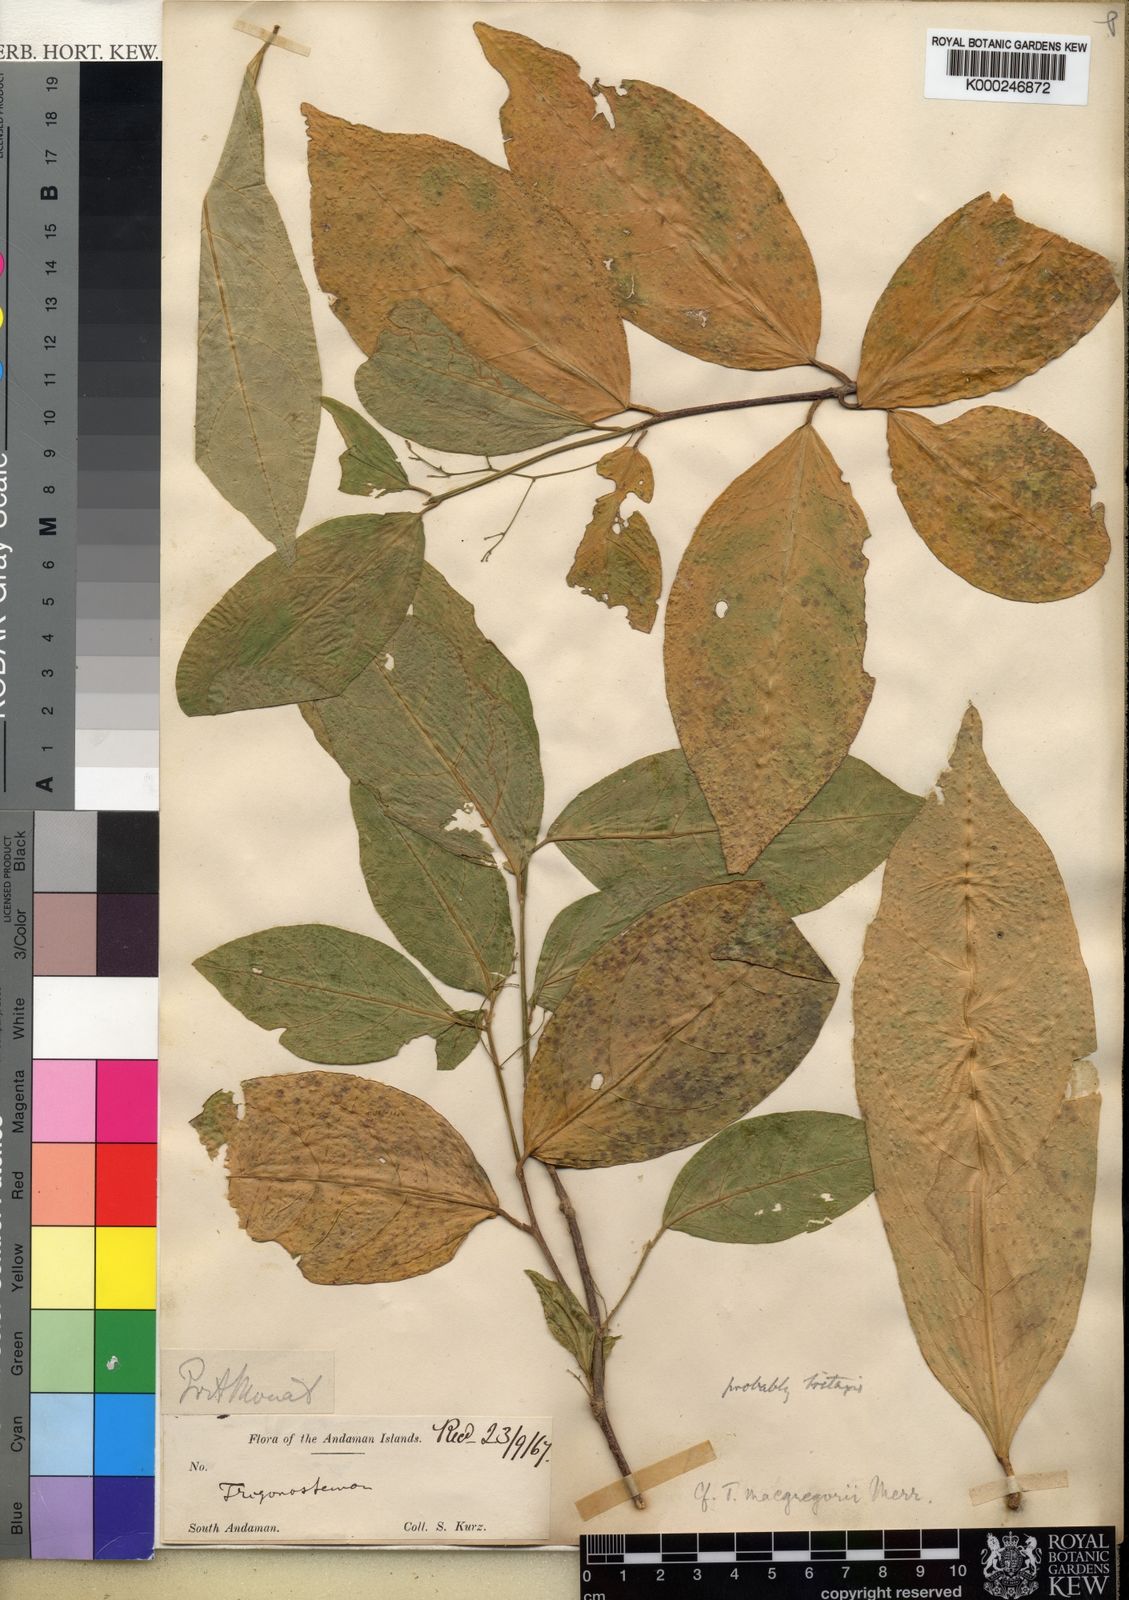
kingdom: Plantae
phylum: Tracheophyta
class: Magnoliopsida
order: Malpighiales
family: Euphorbiaceae
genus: Trigonostemon
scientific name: Trigonostemon viridissimus
